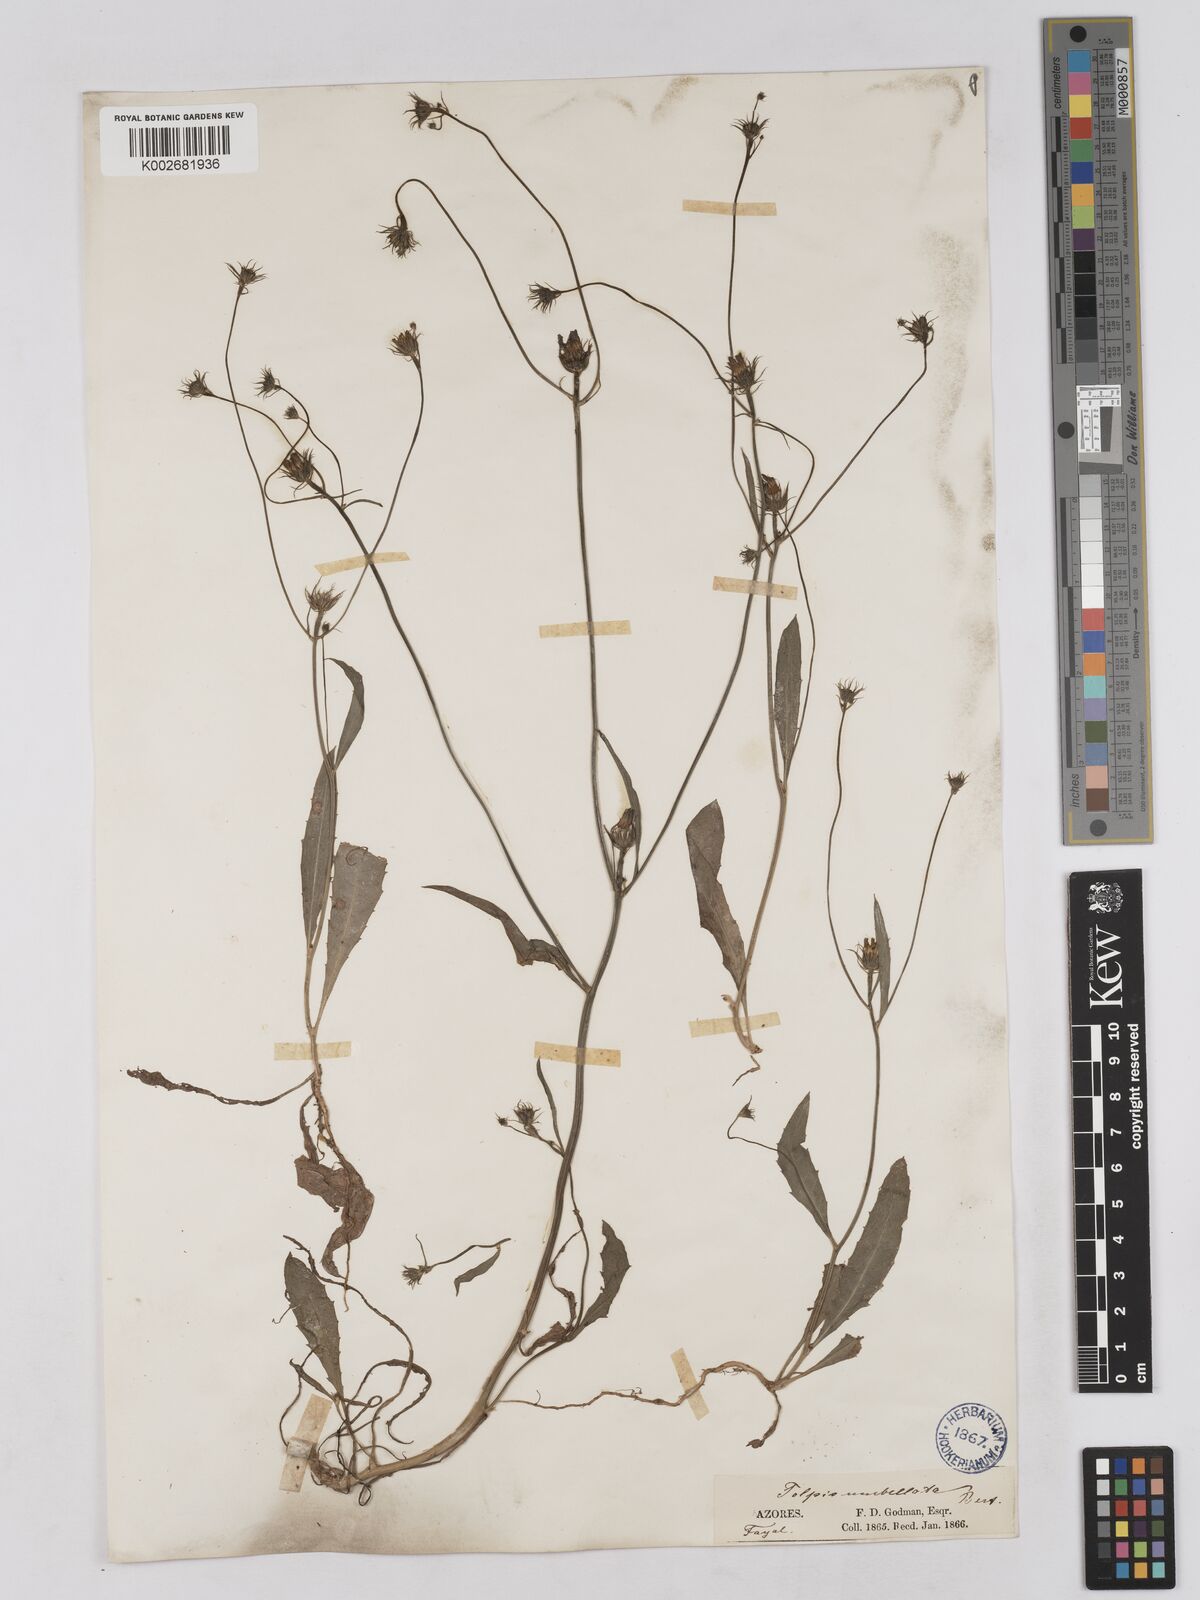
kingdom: Plantae
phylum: Tracheophyta
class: Magnoliopsida
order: Asterales
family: Asteraceae
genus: Tolpis
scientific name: Tolpis umbellata
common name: Yellow hawkweed
